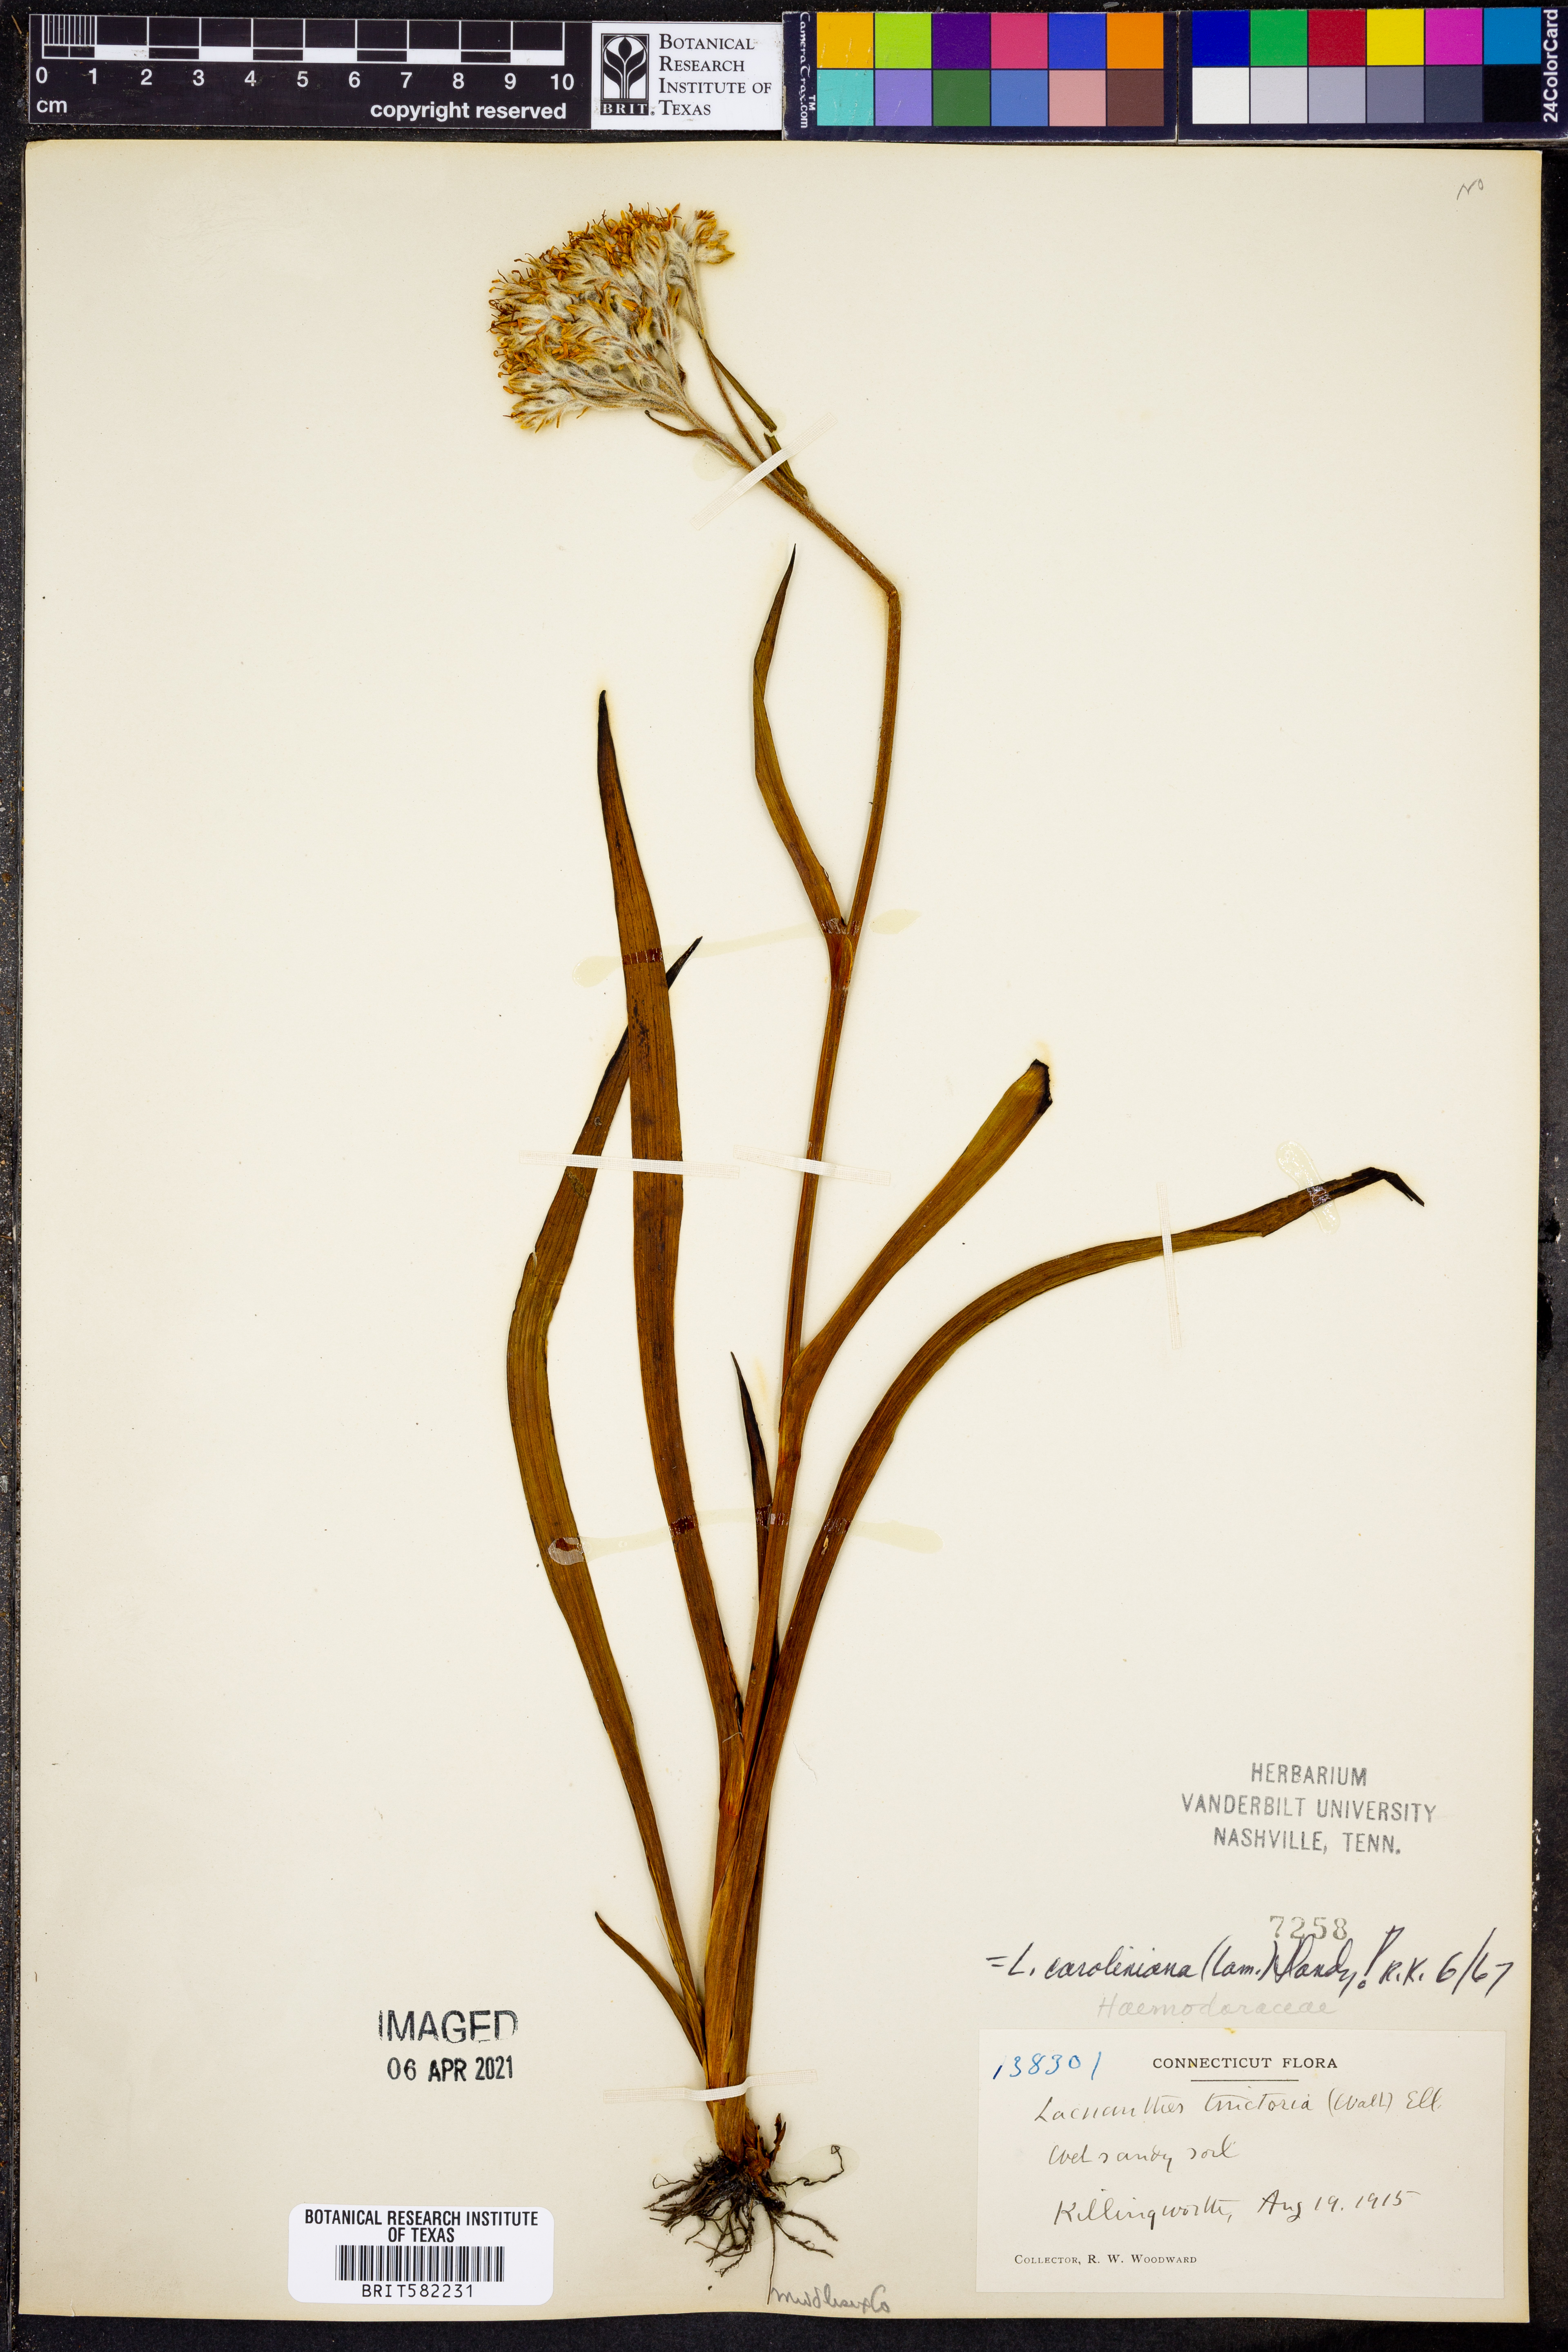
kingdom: Plantae
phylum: Tracheophyta
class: Liliopsida
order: Commelinales
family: Haemodoraceae
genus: Lachnanthes
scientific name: Lachnanthes caroliniana
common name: Carolina redroot
